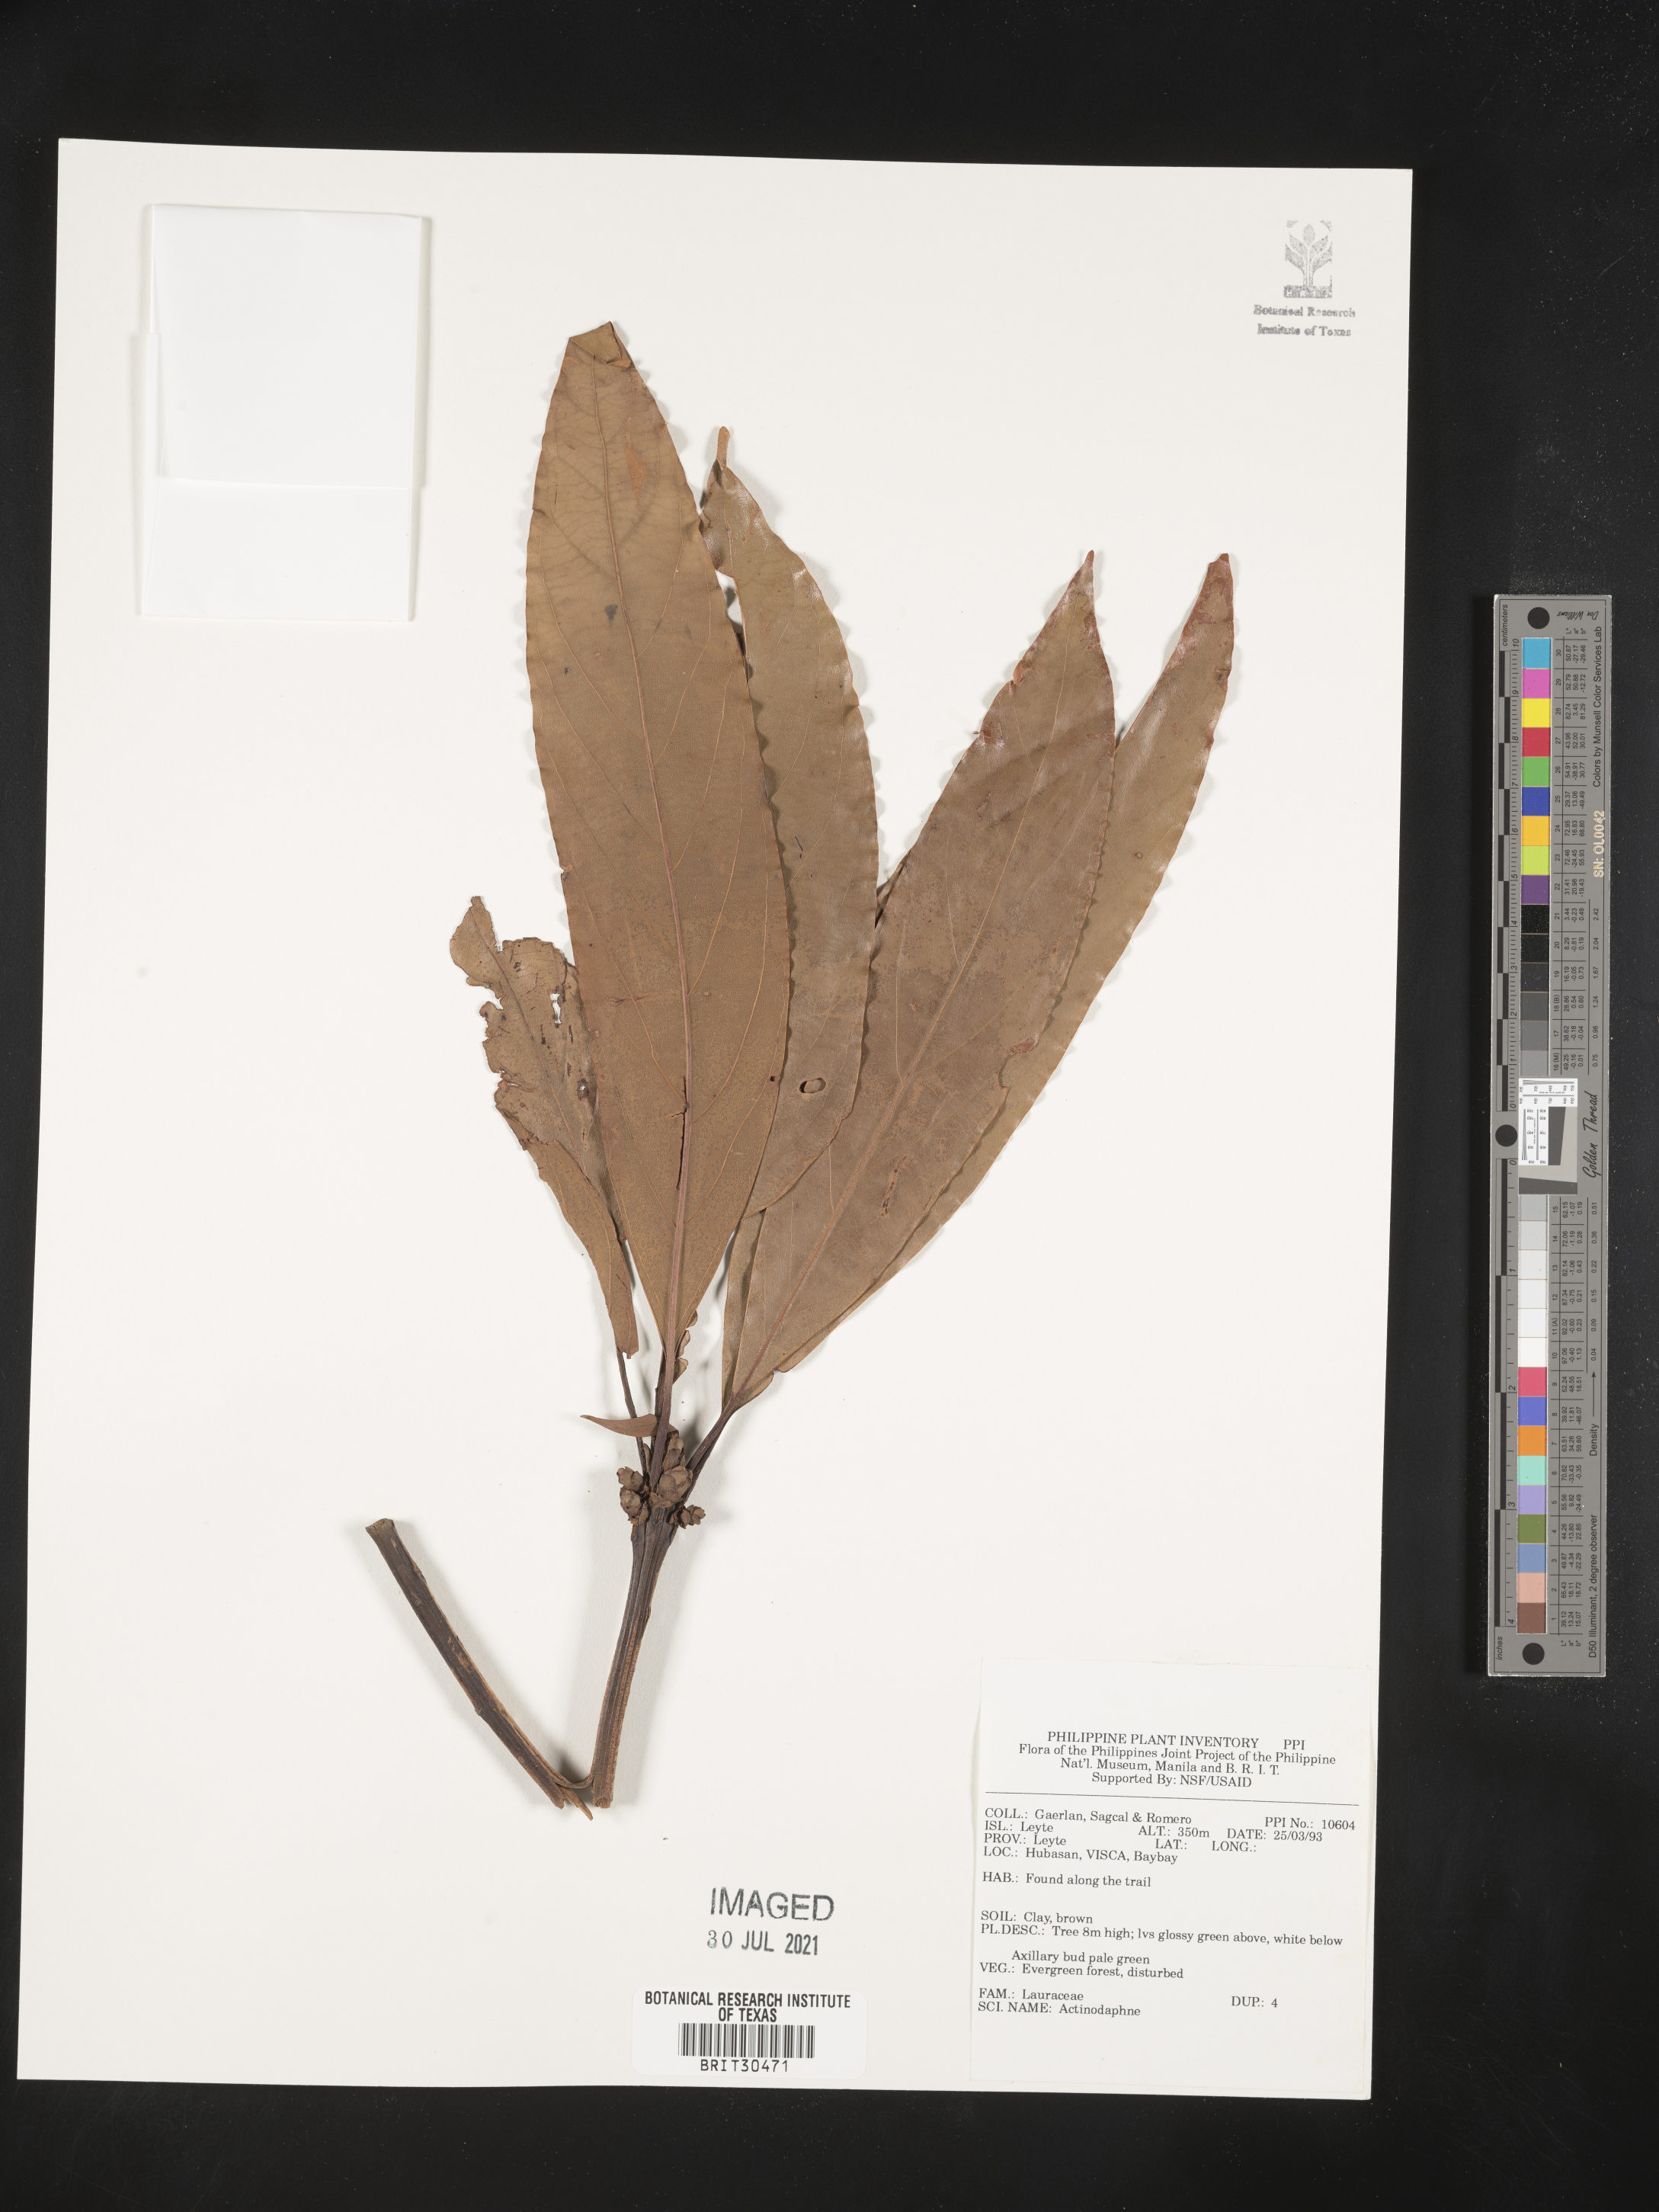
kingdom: Plantae
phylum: Tracheophyta
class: Magnoliopsida
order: Laurales
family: Lauraceae
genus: Actinodaphne
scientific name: Actinodaphne
